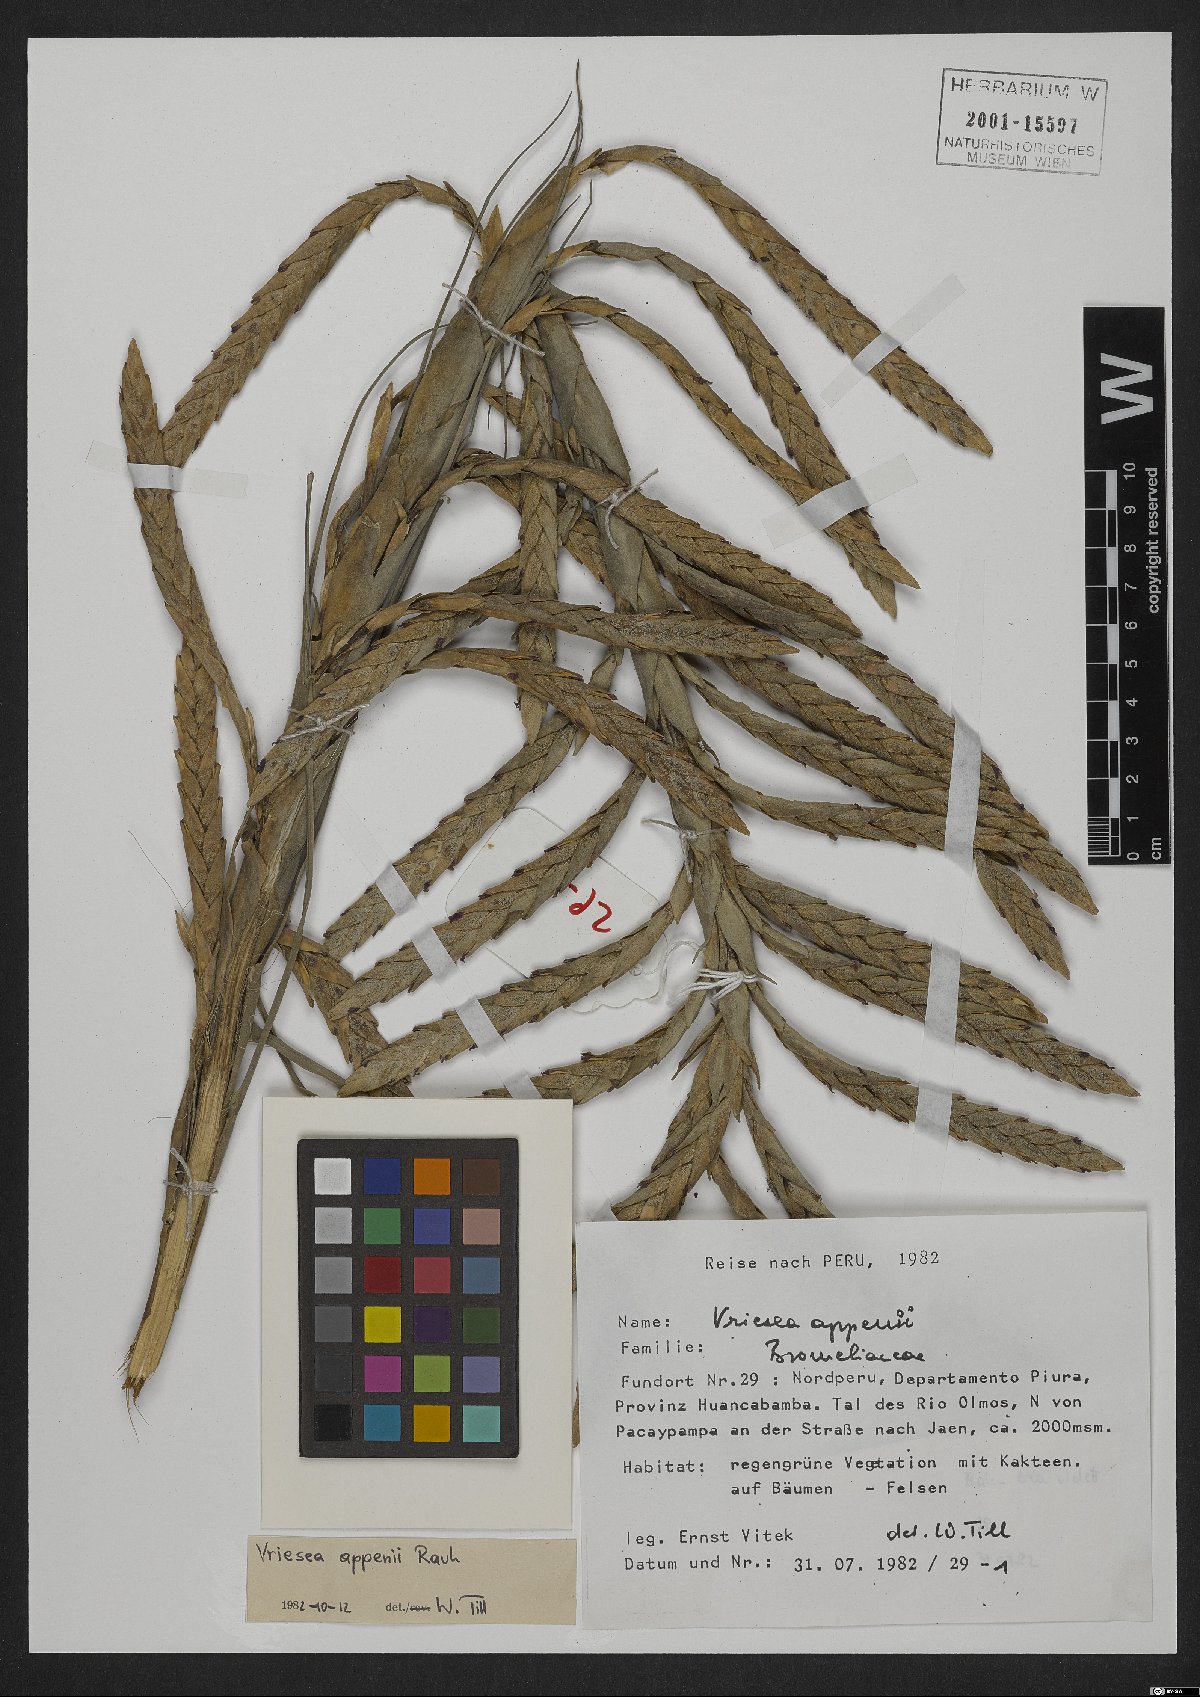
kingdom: Plantae
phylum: Tracheophyta
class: Liliopsida
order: Poales
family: Bromeliaceae
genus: Tillandsia
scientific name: Tillandsia appenii
